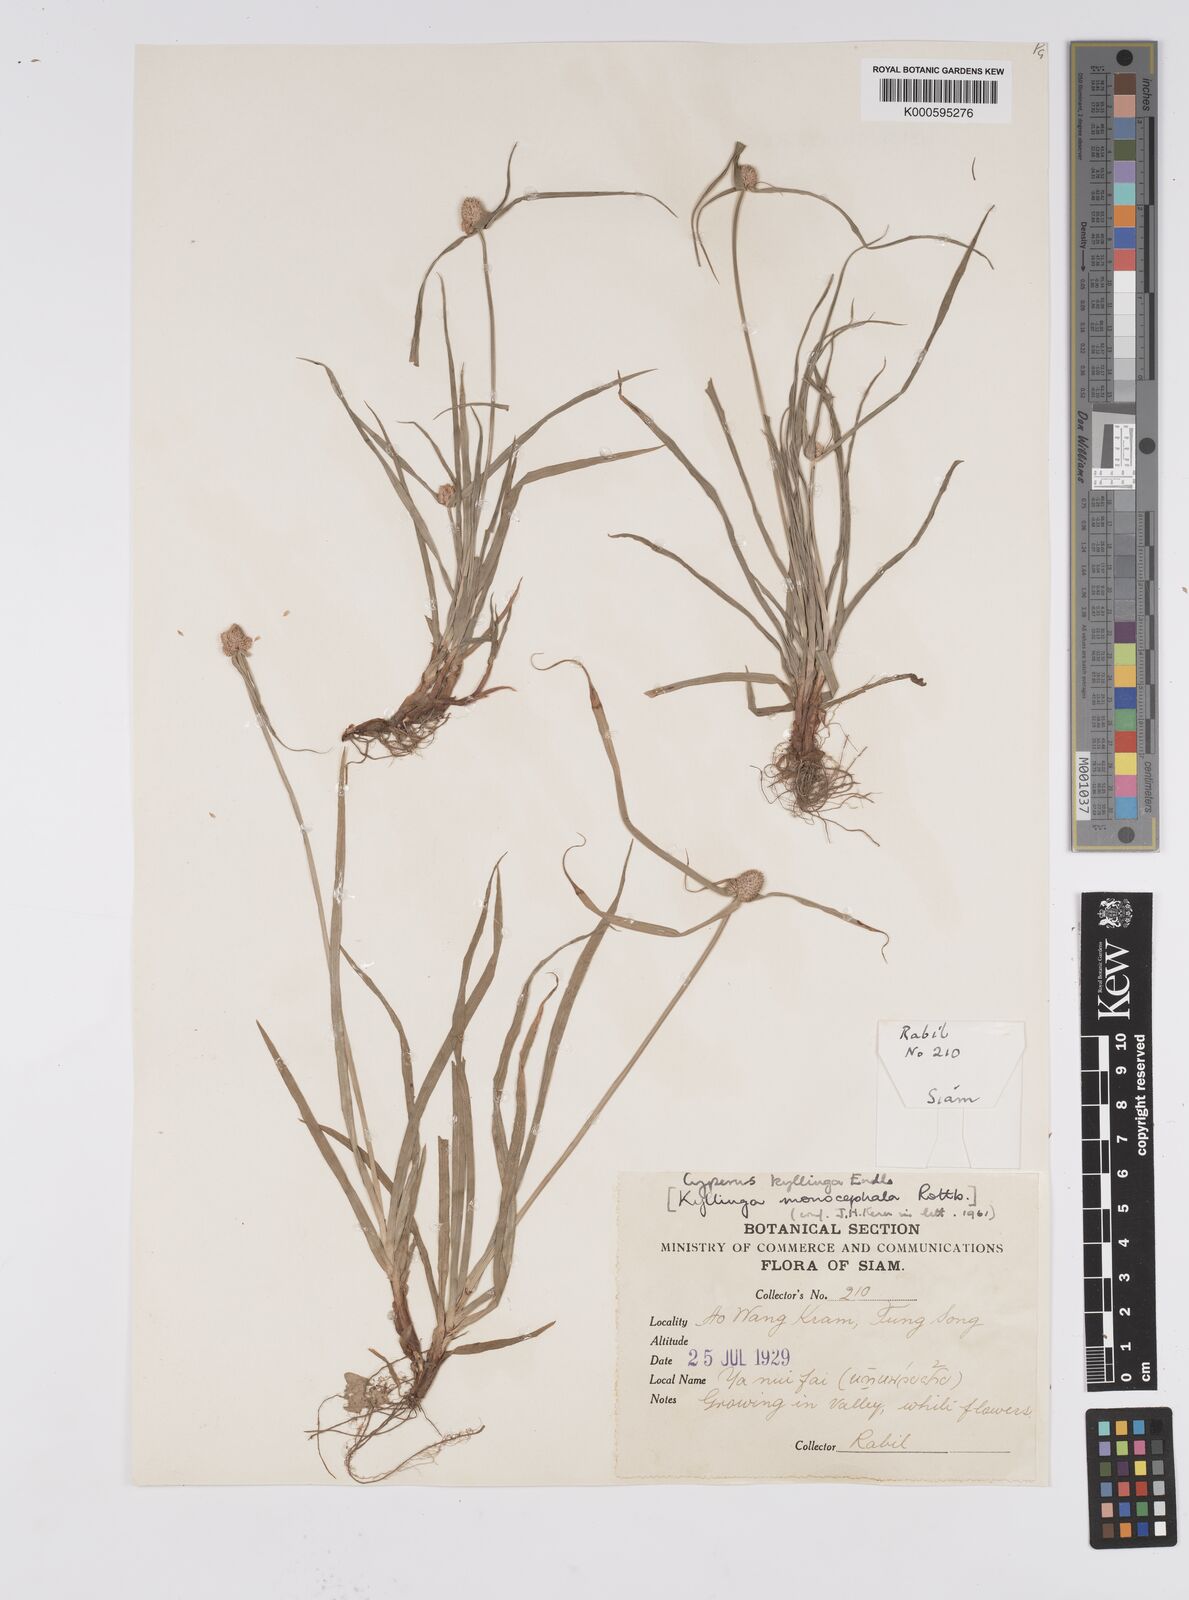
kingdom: Plantae
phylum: Tracheophyta
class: Liliopsida
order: Poales
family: Cyperaceae
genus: Cyperus
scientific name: Cyperus mindorensis
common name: Flatsedge
